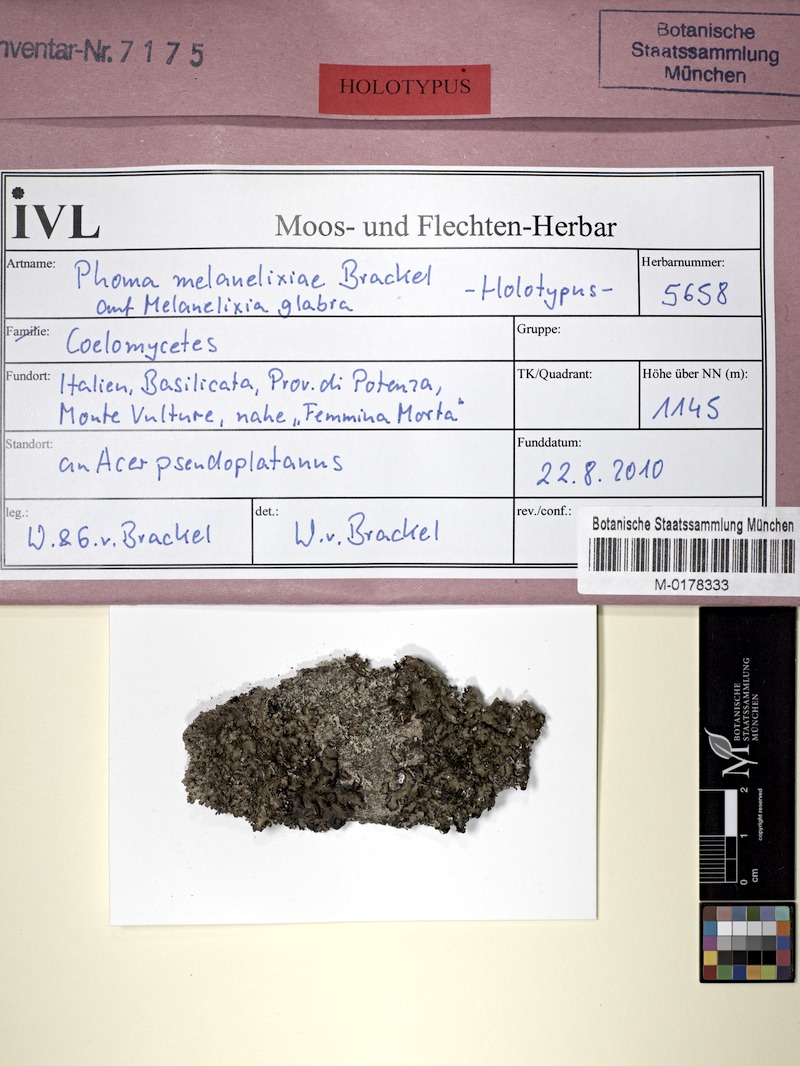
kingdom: Fungi
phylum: Ascomycota
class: Lecanoromycetes
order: Lecanorales
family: Parmeliaceae
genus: Melanelixia
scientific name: Melanelixia glabra
